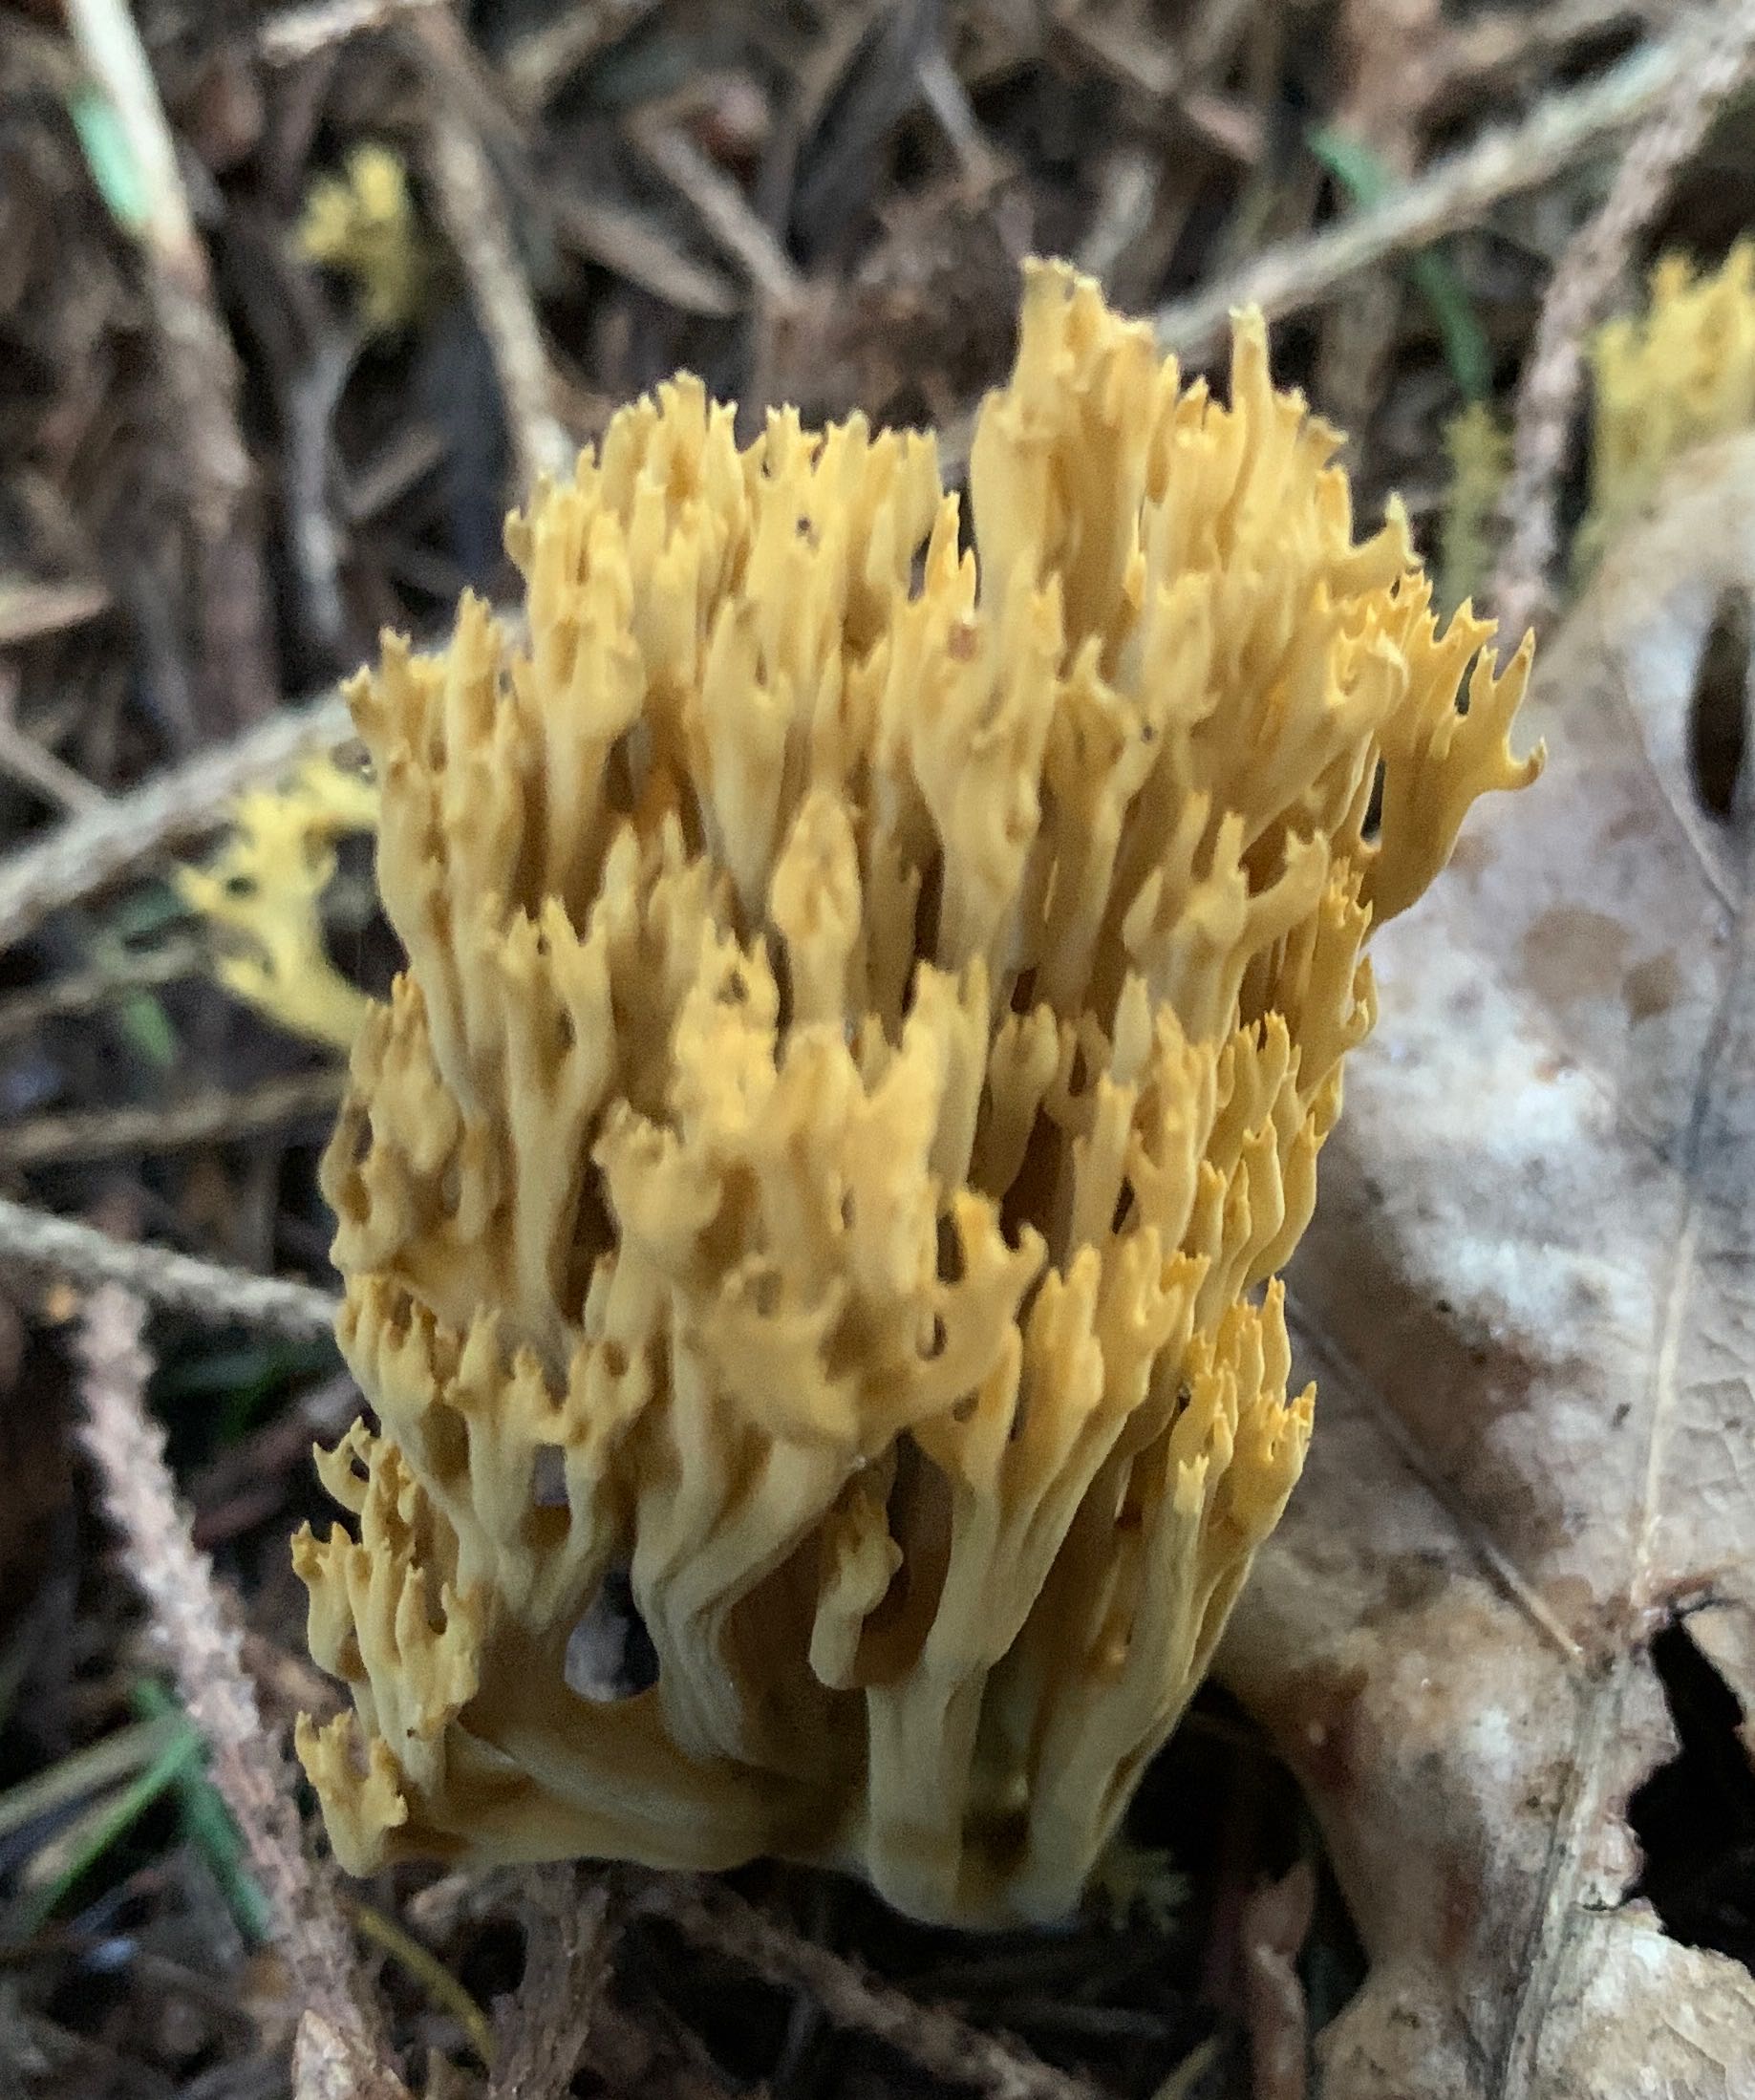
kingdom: Fungi
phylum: Basidiomycota
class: Agaricomycetes
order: Gomphales
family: Gomphaceae
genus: Phaeoclavulina
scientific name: Phaeoclavulina eumorpha
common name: gran-koralsvamp
